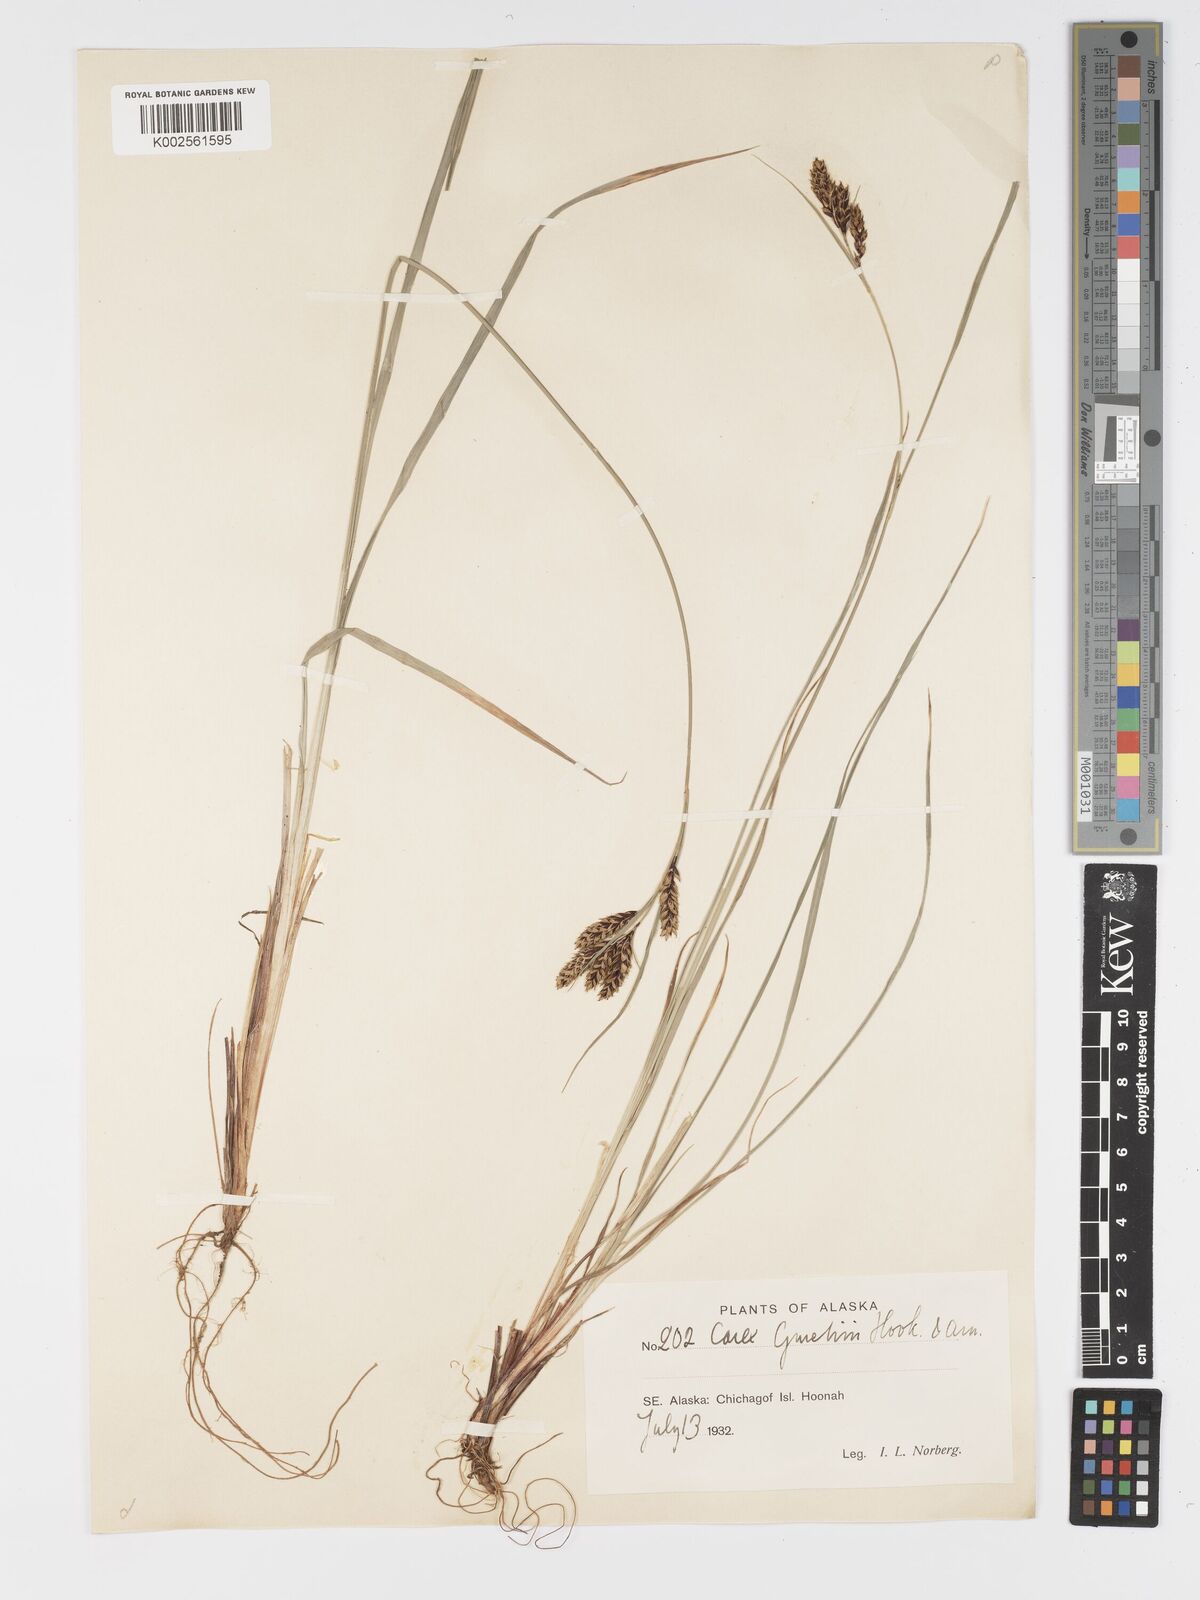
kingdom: Plantae
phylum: Tracheophyta
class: Liliopsida
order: Poales
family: Cyperaceae
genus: Carex
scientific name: Carex gmelinii
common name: Gmelin's sedge
